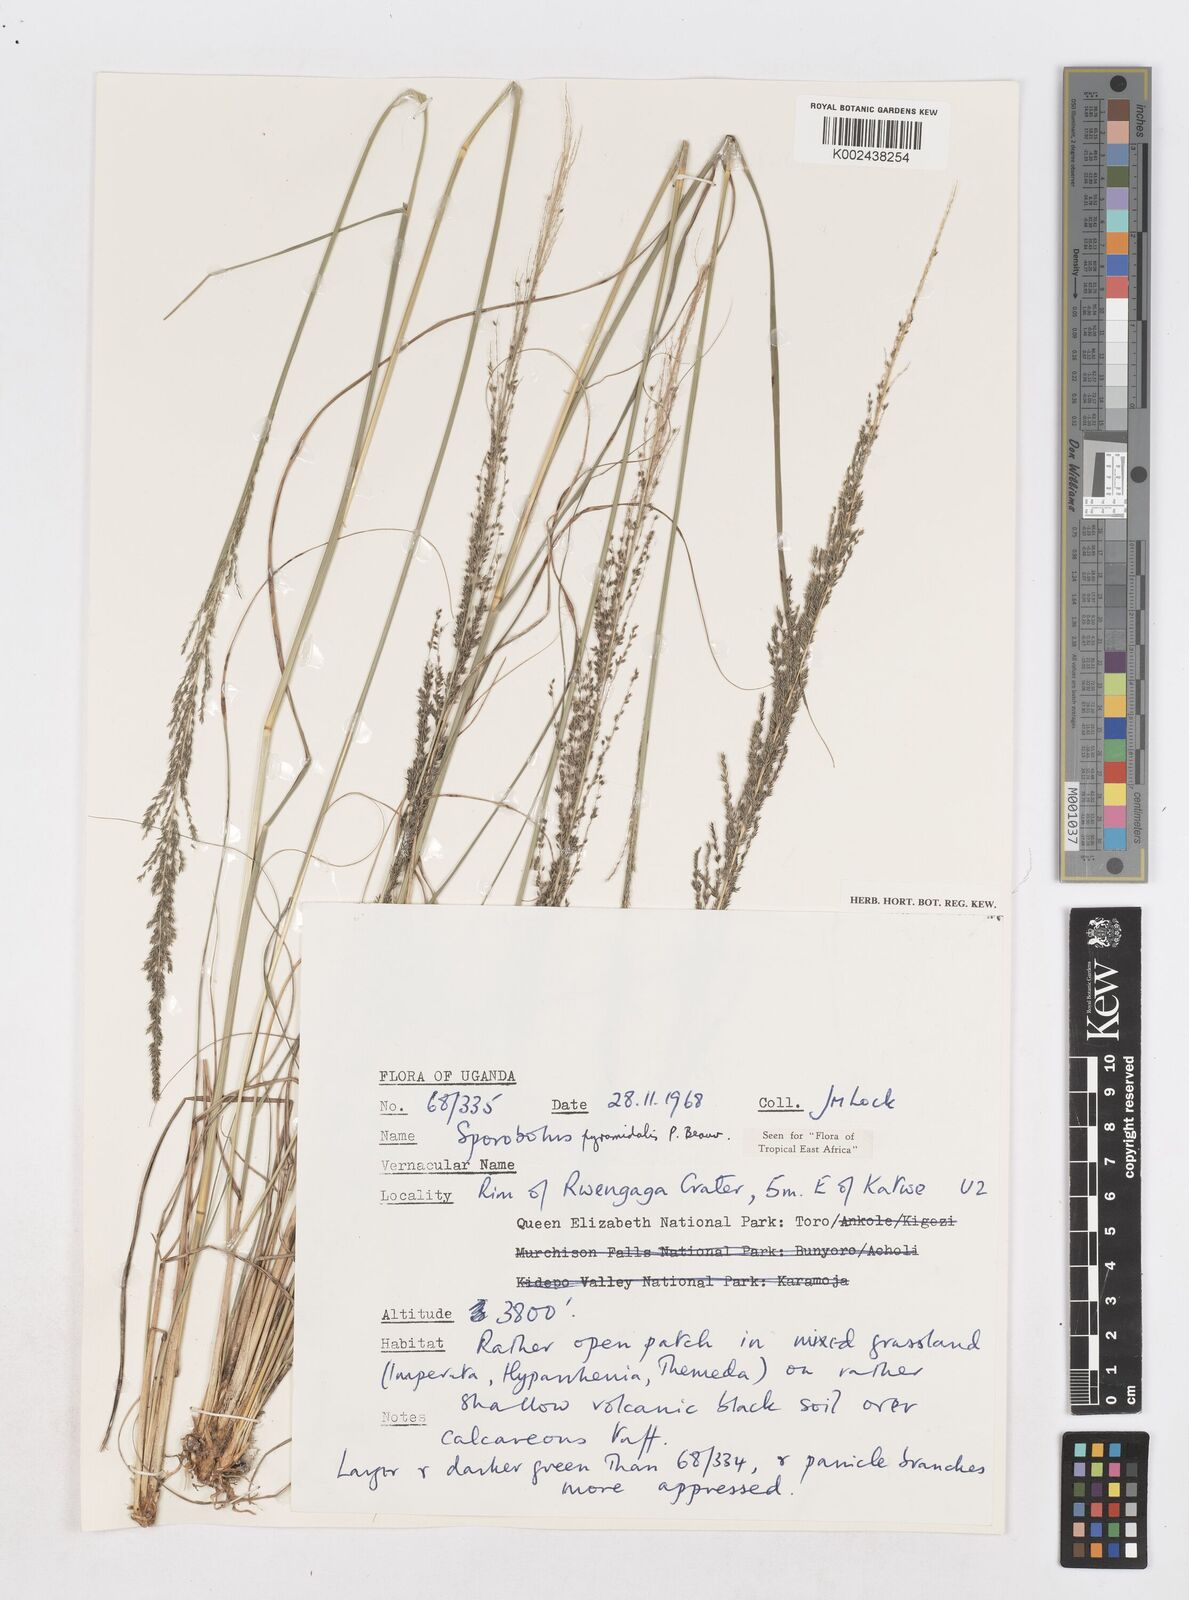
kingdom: Plantae
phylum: Tracheophyta
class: Liliopsida
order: Poales
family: Poaceae
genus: Sporobolus
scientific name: Sporobolus pyramidalis
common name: West indian dropseed
